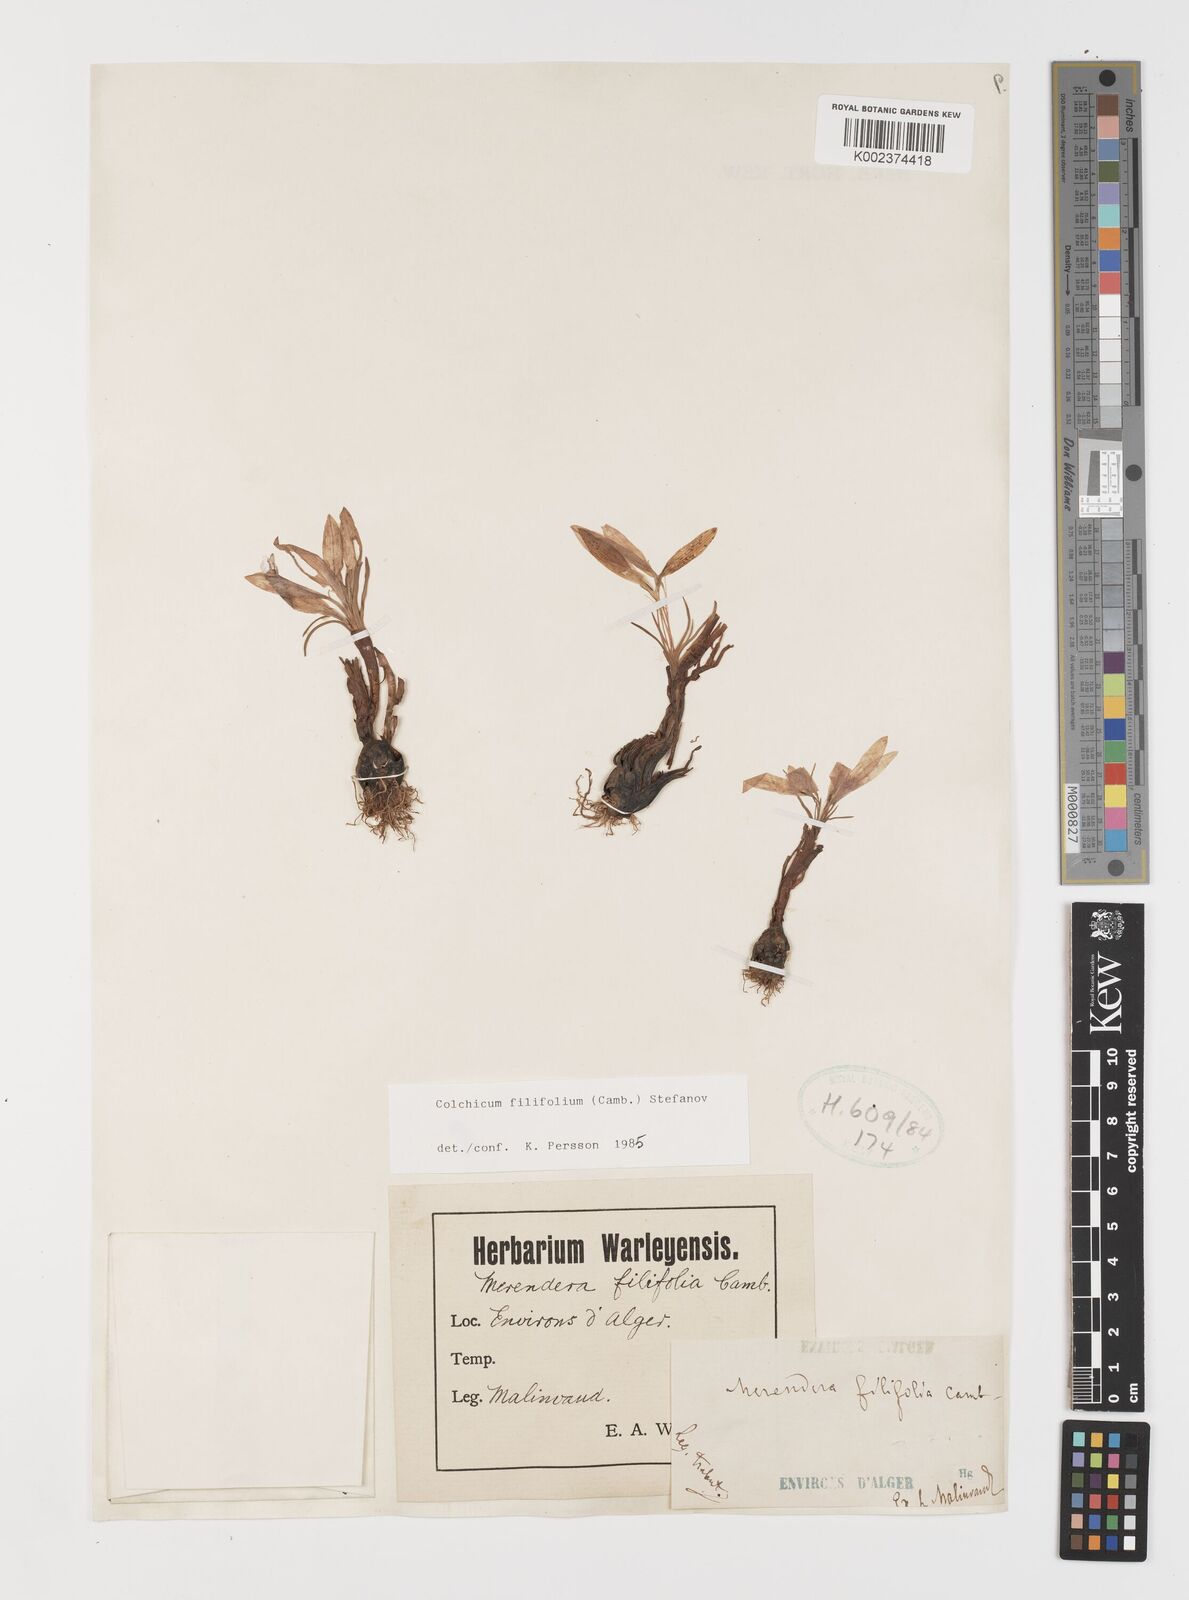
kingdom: Plantae
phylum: Tracheophyta
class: Liliopsida
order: Liliales
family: Colchicaceae
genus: Colchicum
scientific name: Colchicum filifolium
